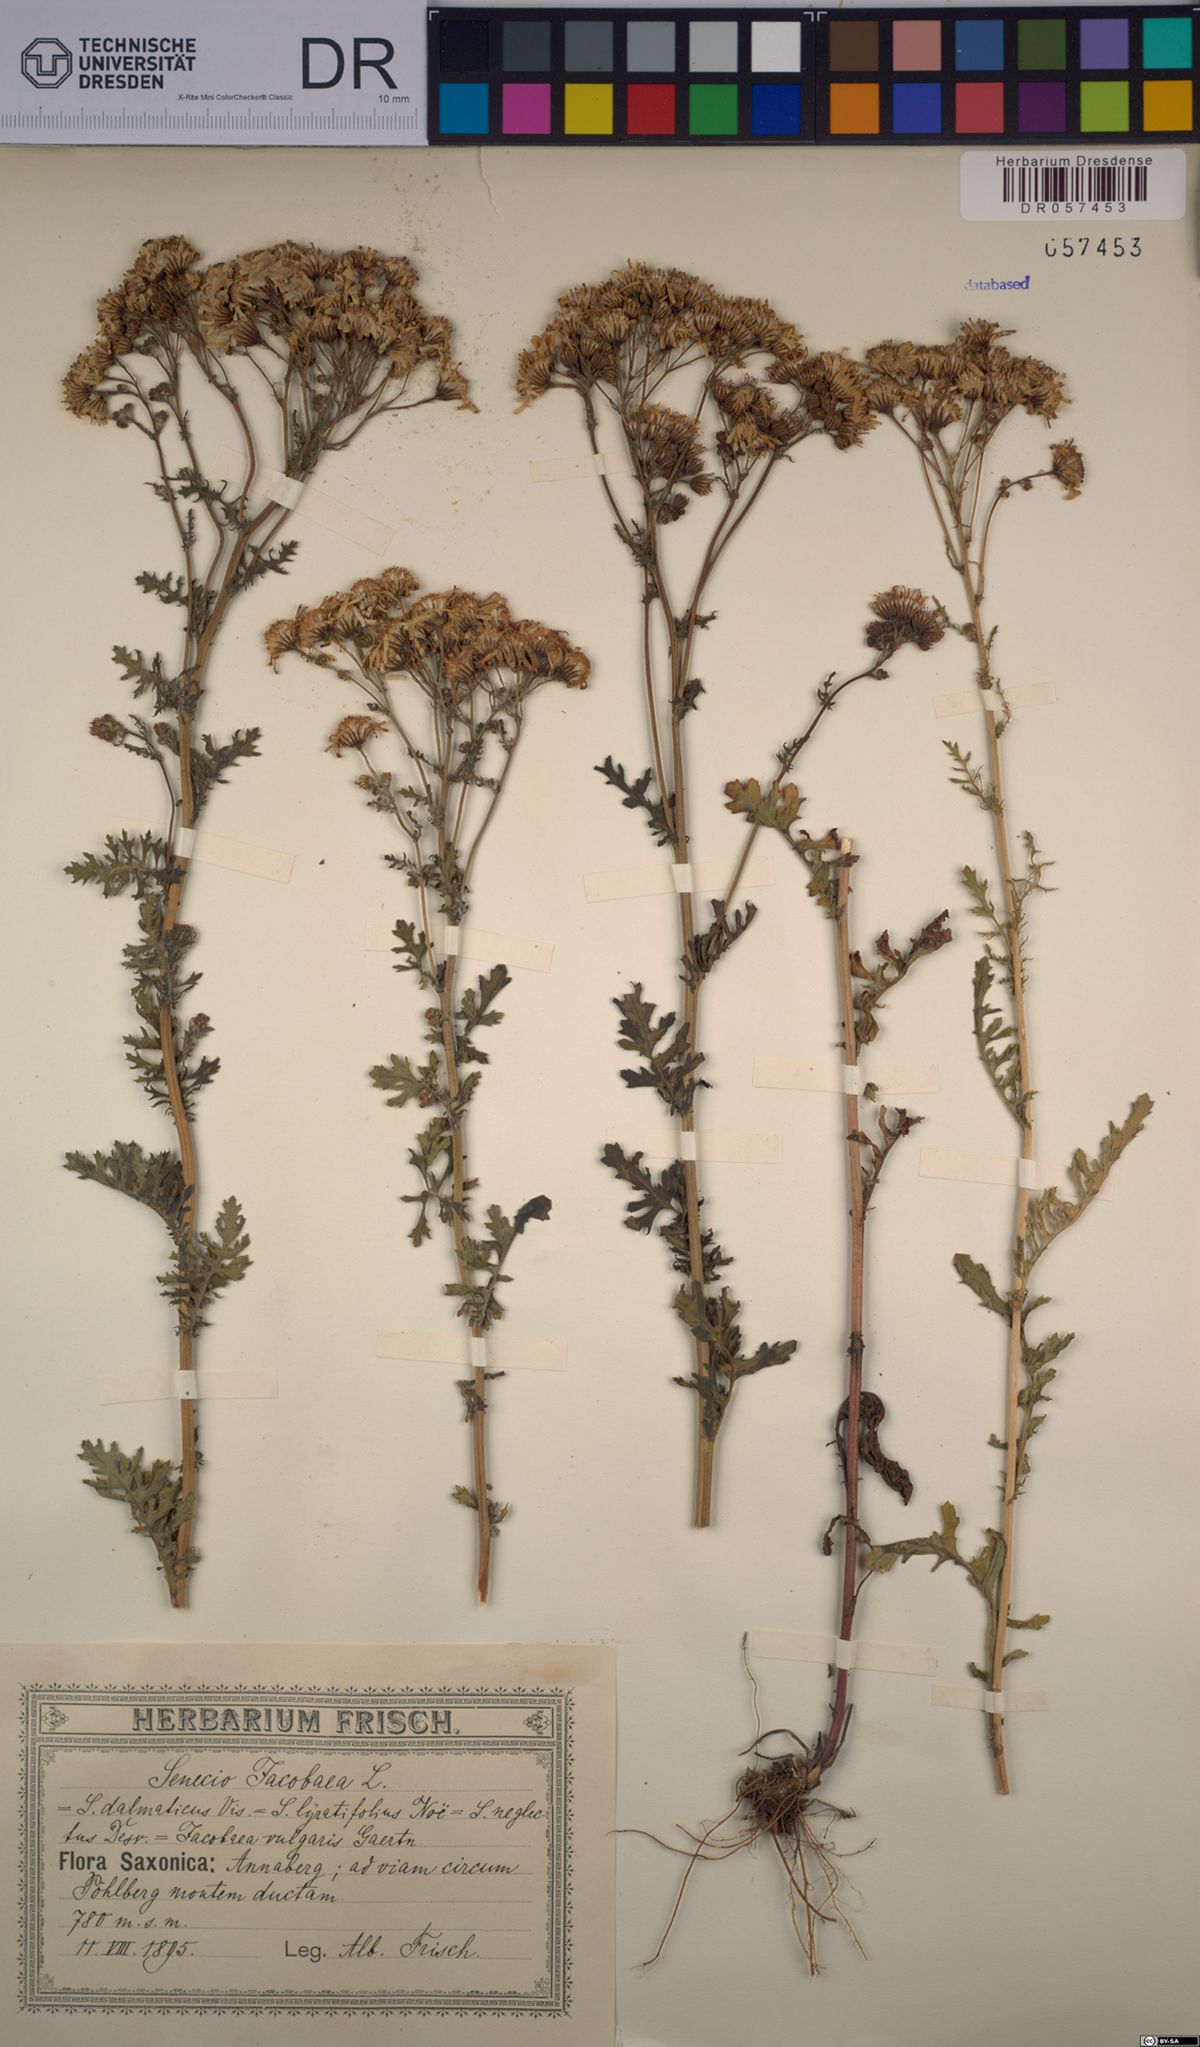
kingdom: Plantae
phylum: Tracheophyta
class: Magnoliopsida
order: Asterales
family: Asteraceae
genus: Jacobaea
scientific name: Jacobaea vulgaris
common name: Stinking willie
